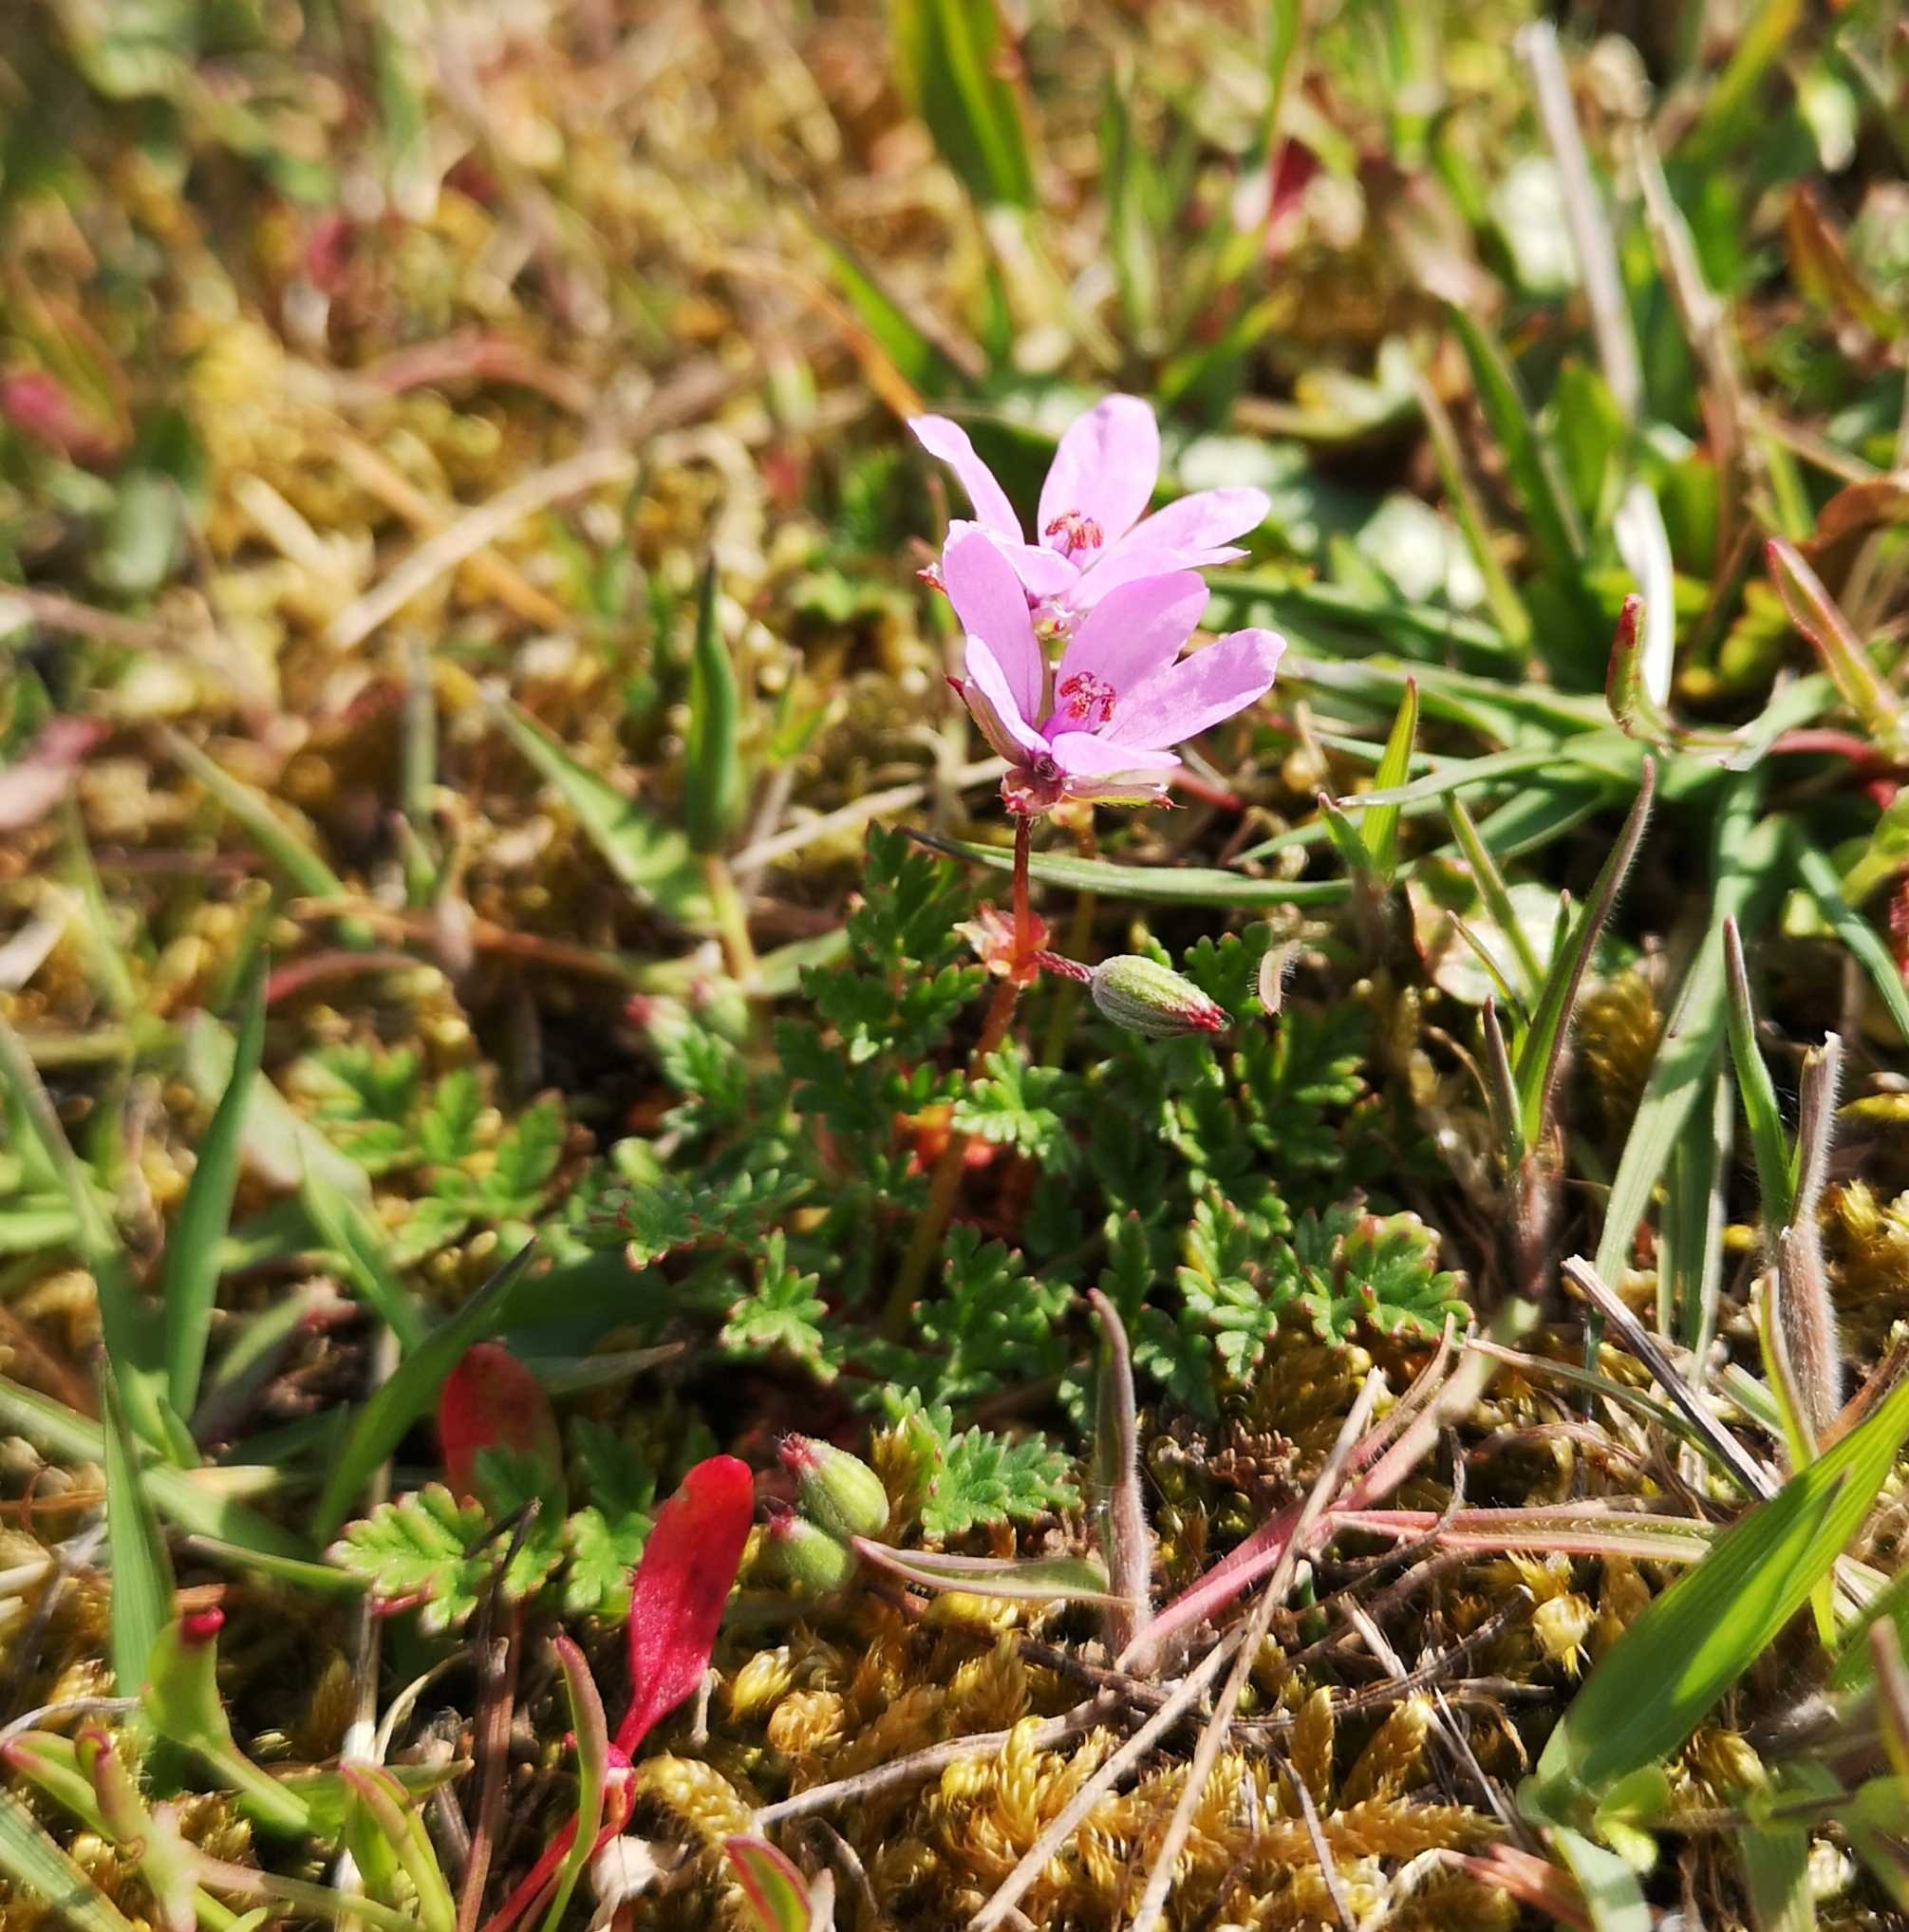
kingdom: Plantae
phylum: Tracheophyta
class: Magnoliopsida
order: Geraniales
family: Geraniaceae
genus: Erodium
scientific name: Erodium cicutarium
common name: Hejrenæb
